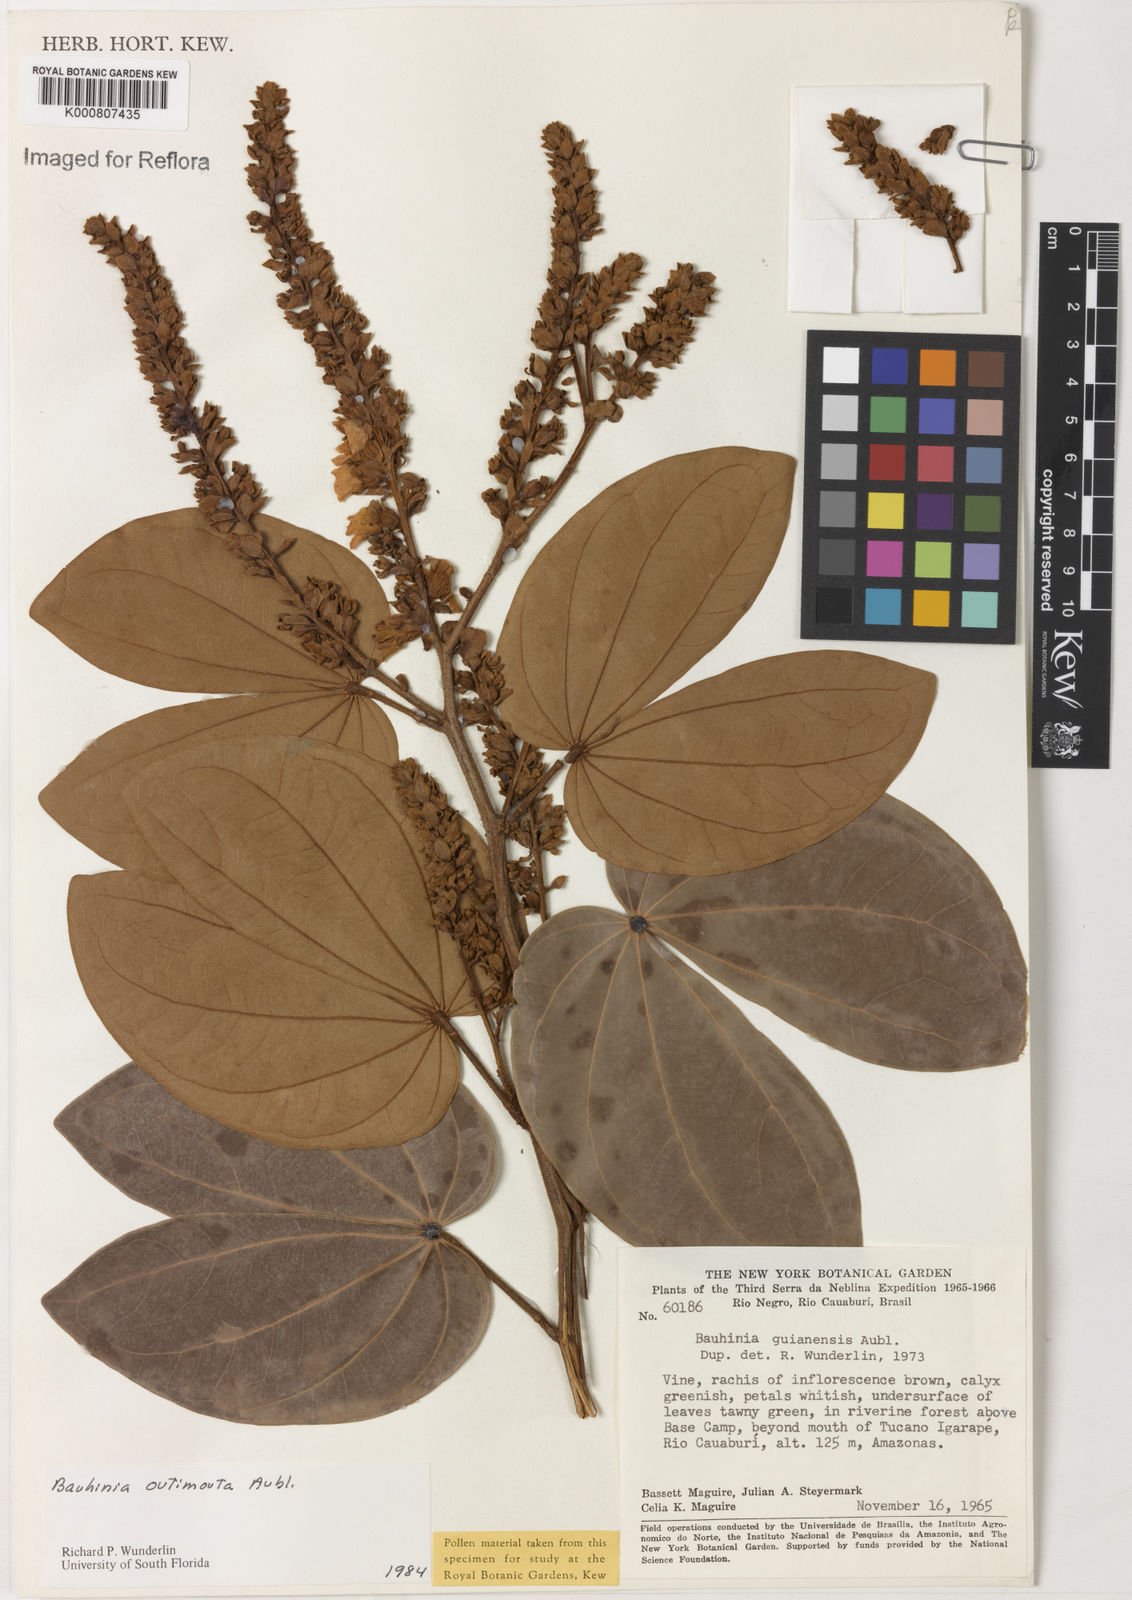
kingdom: Plantae
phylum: Tracheophyta
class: Magnoliopsida
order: Fabales
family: Fabaceae
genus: Schnella
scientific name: Schnella outimouta
